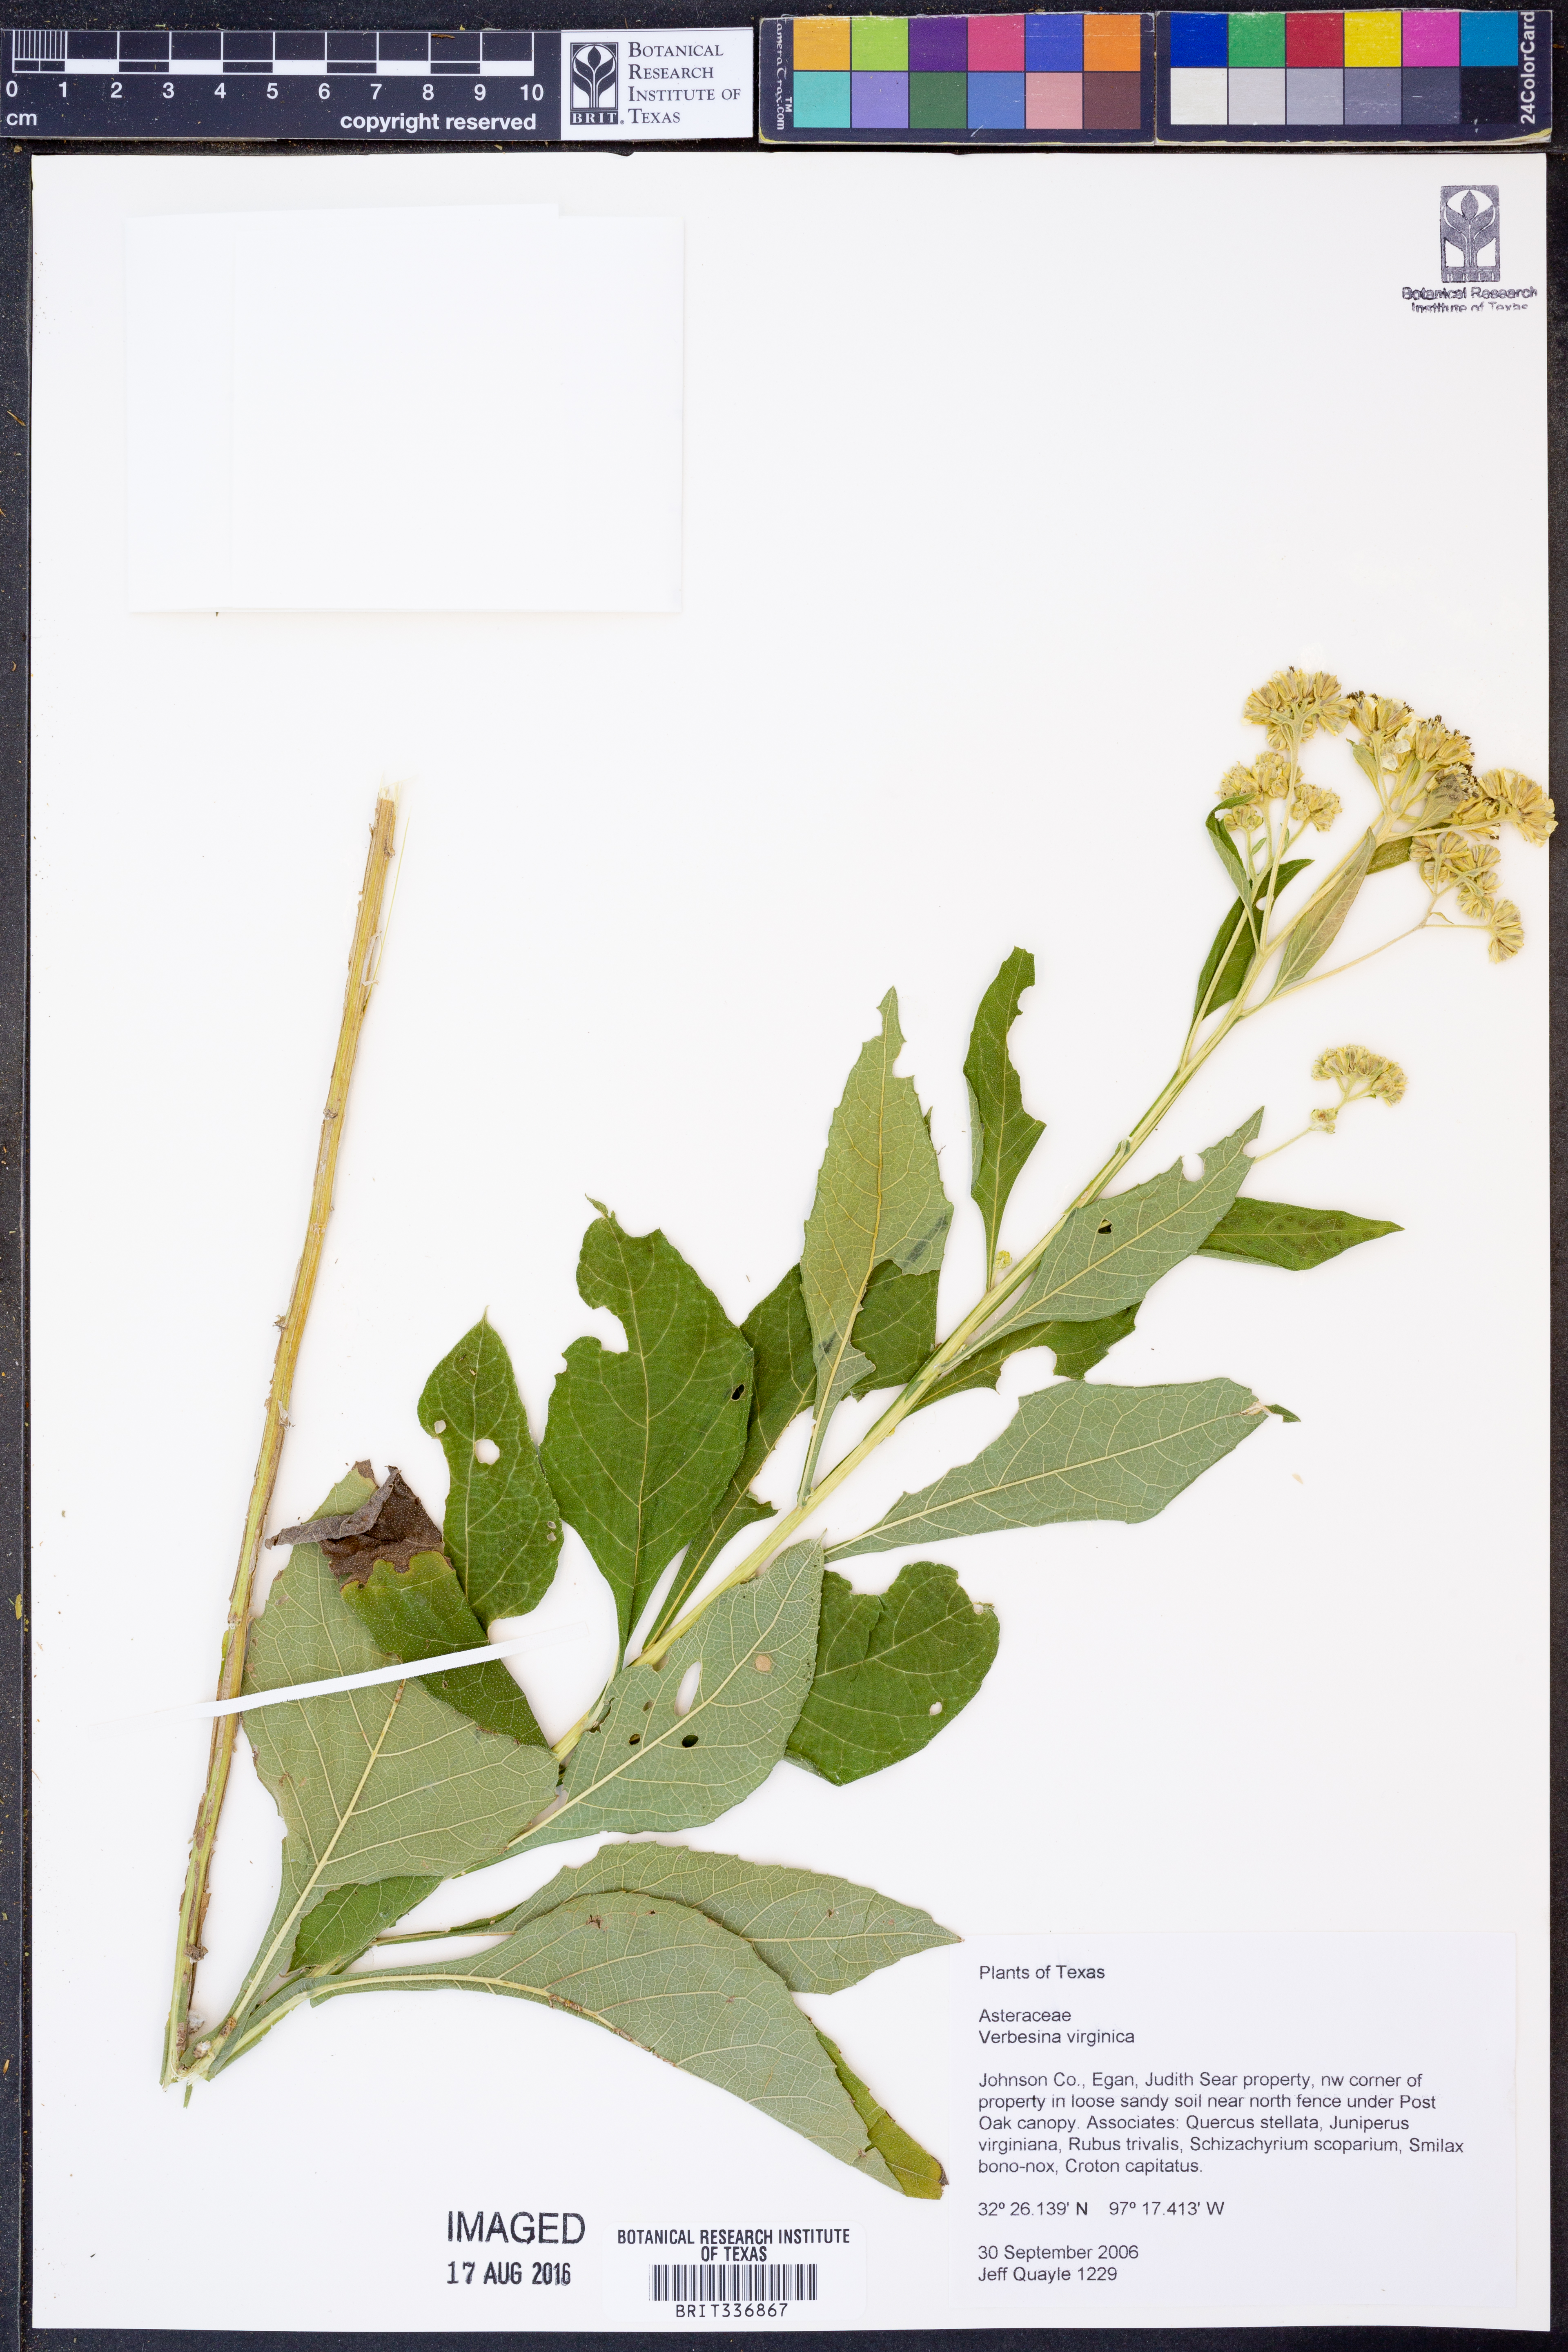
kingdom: Plantae
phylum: Tracheophyta
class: Magnoliopsida
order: Asterales
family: Asteraceae
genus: Verbesina
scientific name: Verbesina virginica
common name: Frostweed
